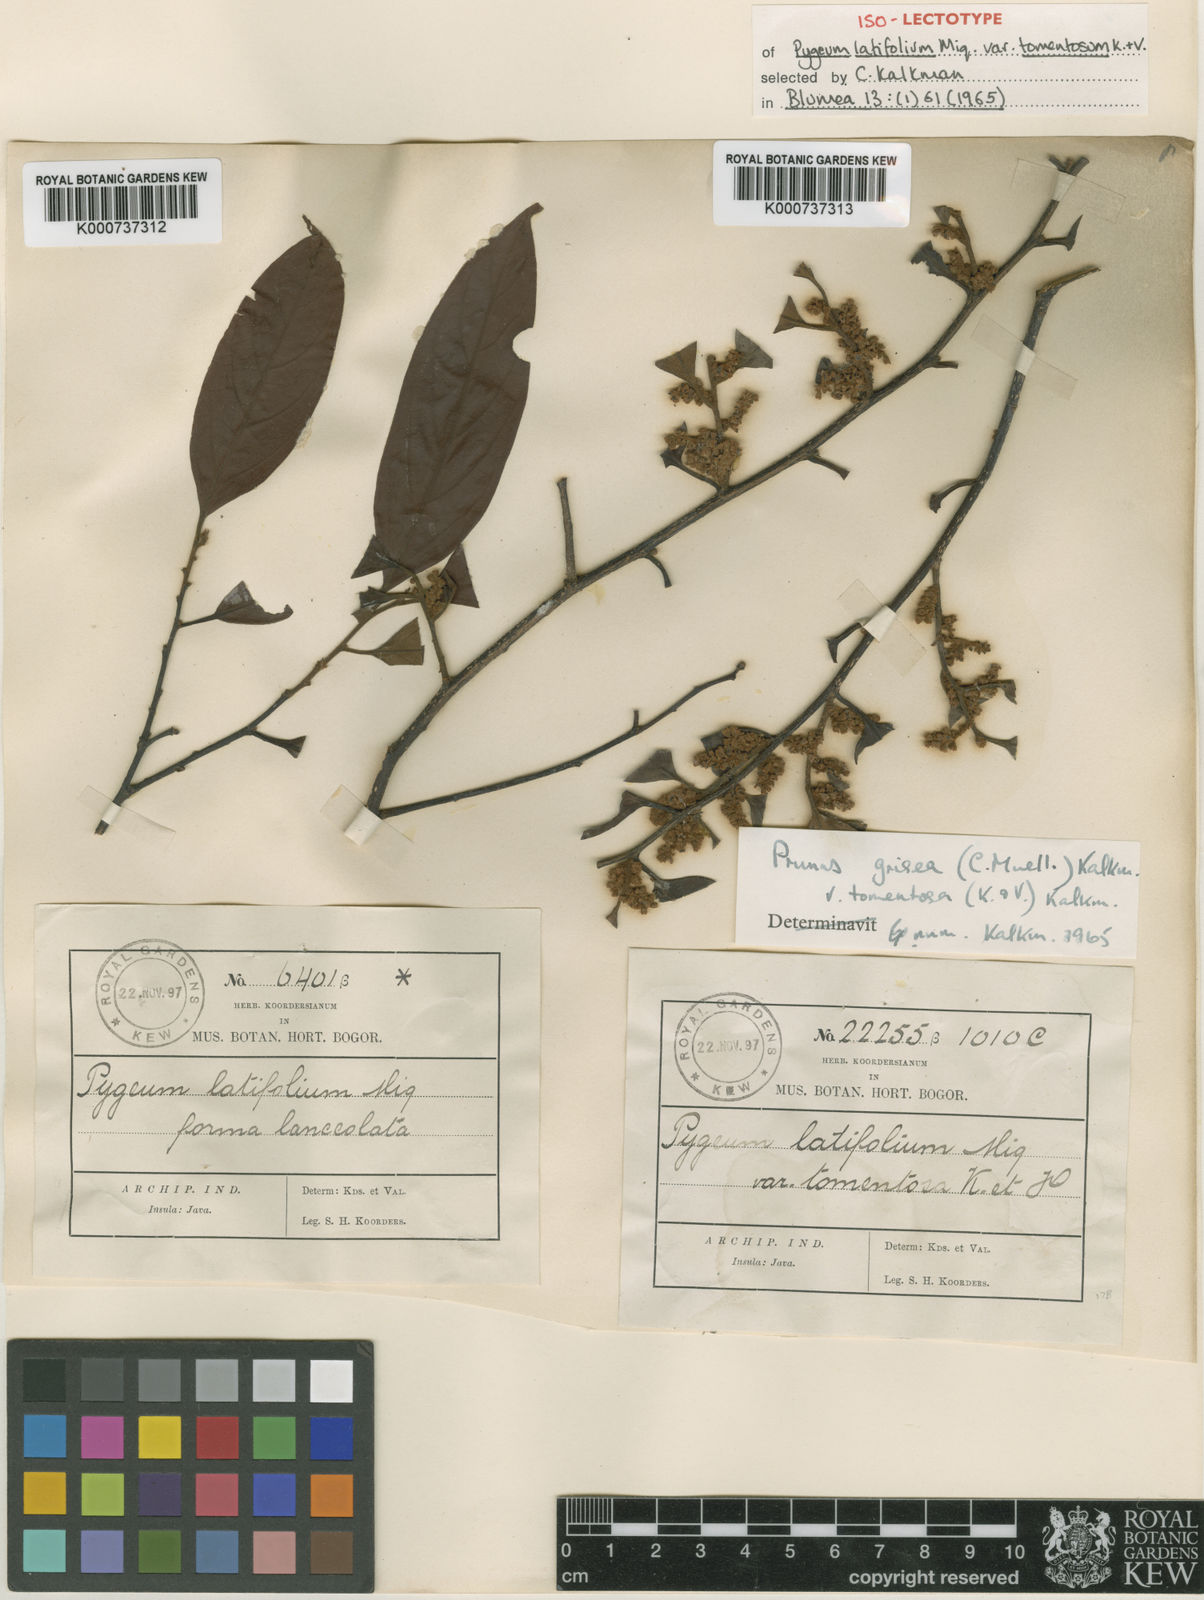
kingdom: Plantae
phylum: Tracheophyta
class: Magnoliopsida
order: Rosales
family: Rosaceae
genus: Prunus
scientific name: Prunus
